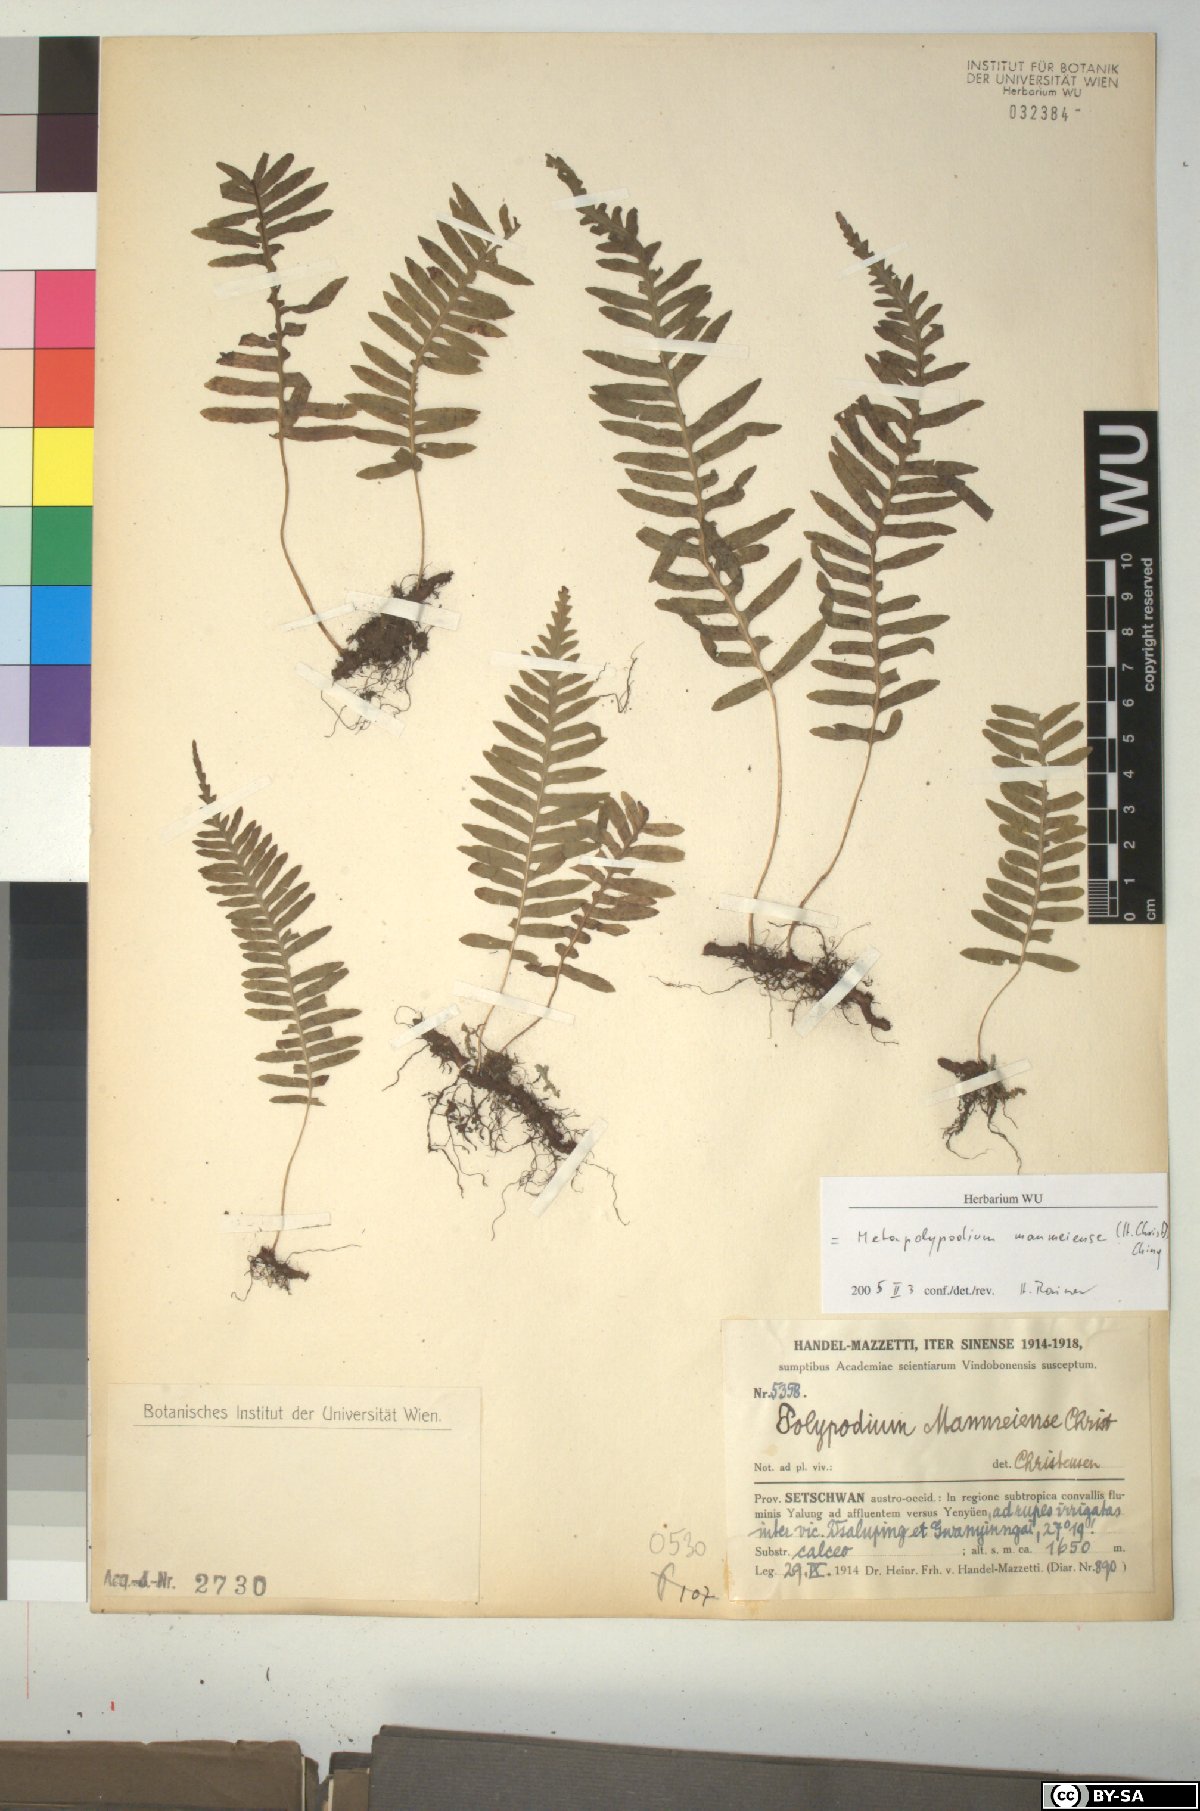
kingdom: Plantae
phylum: Tracheophyta
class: Polypodiopsida
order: Polypodiales
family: Polypodiaceae
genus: Goniophlebium
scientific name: Goniophlebium manmeiense
